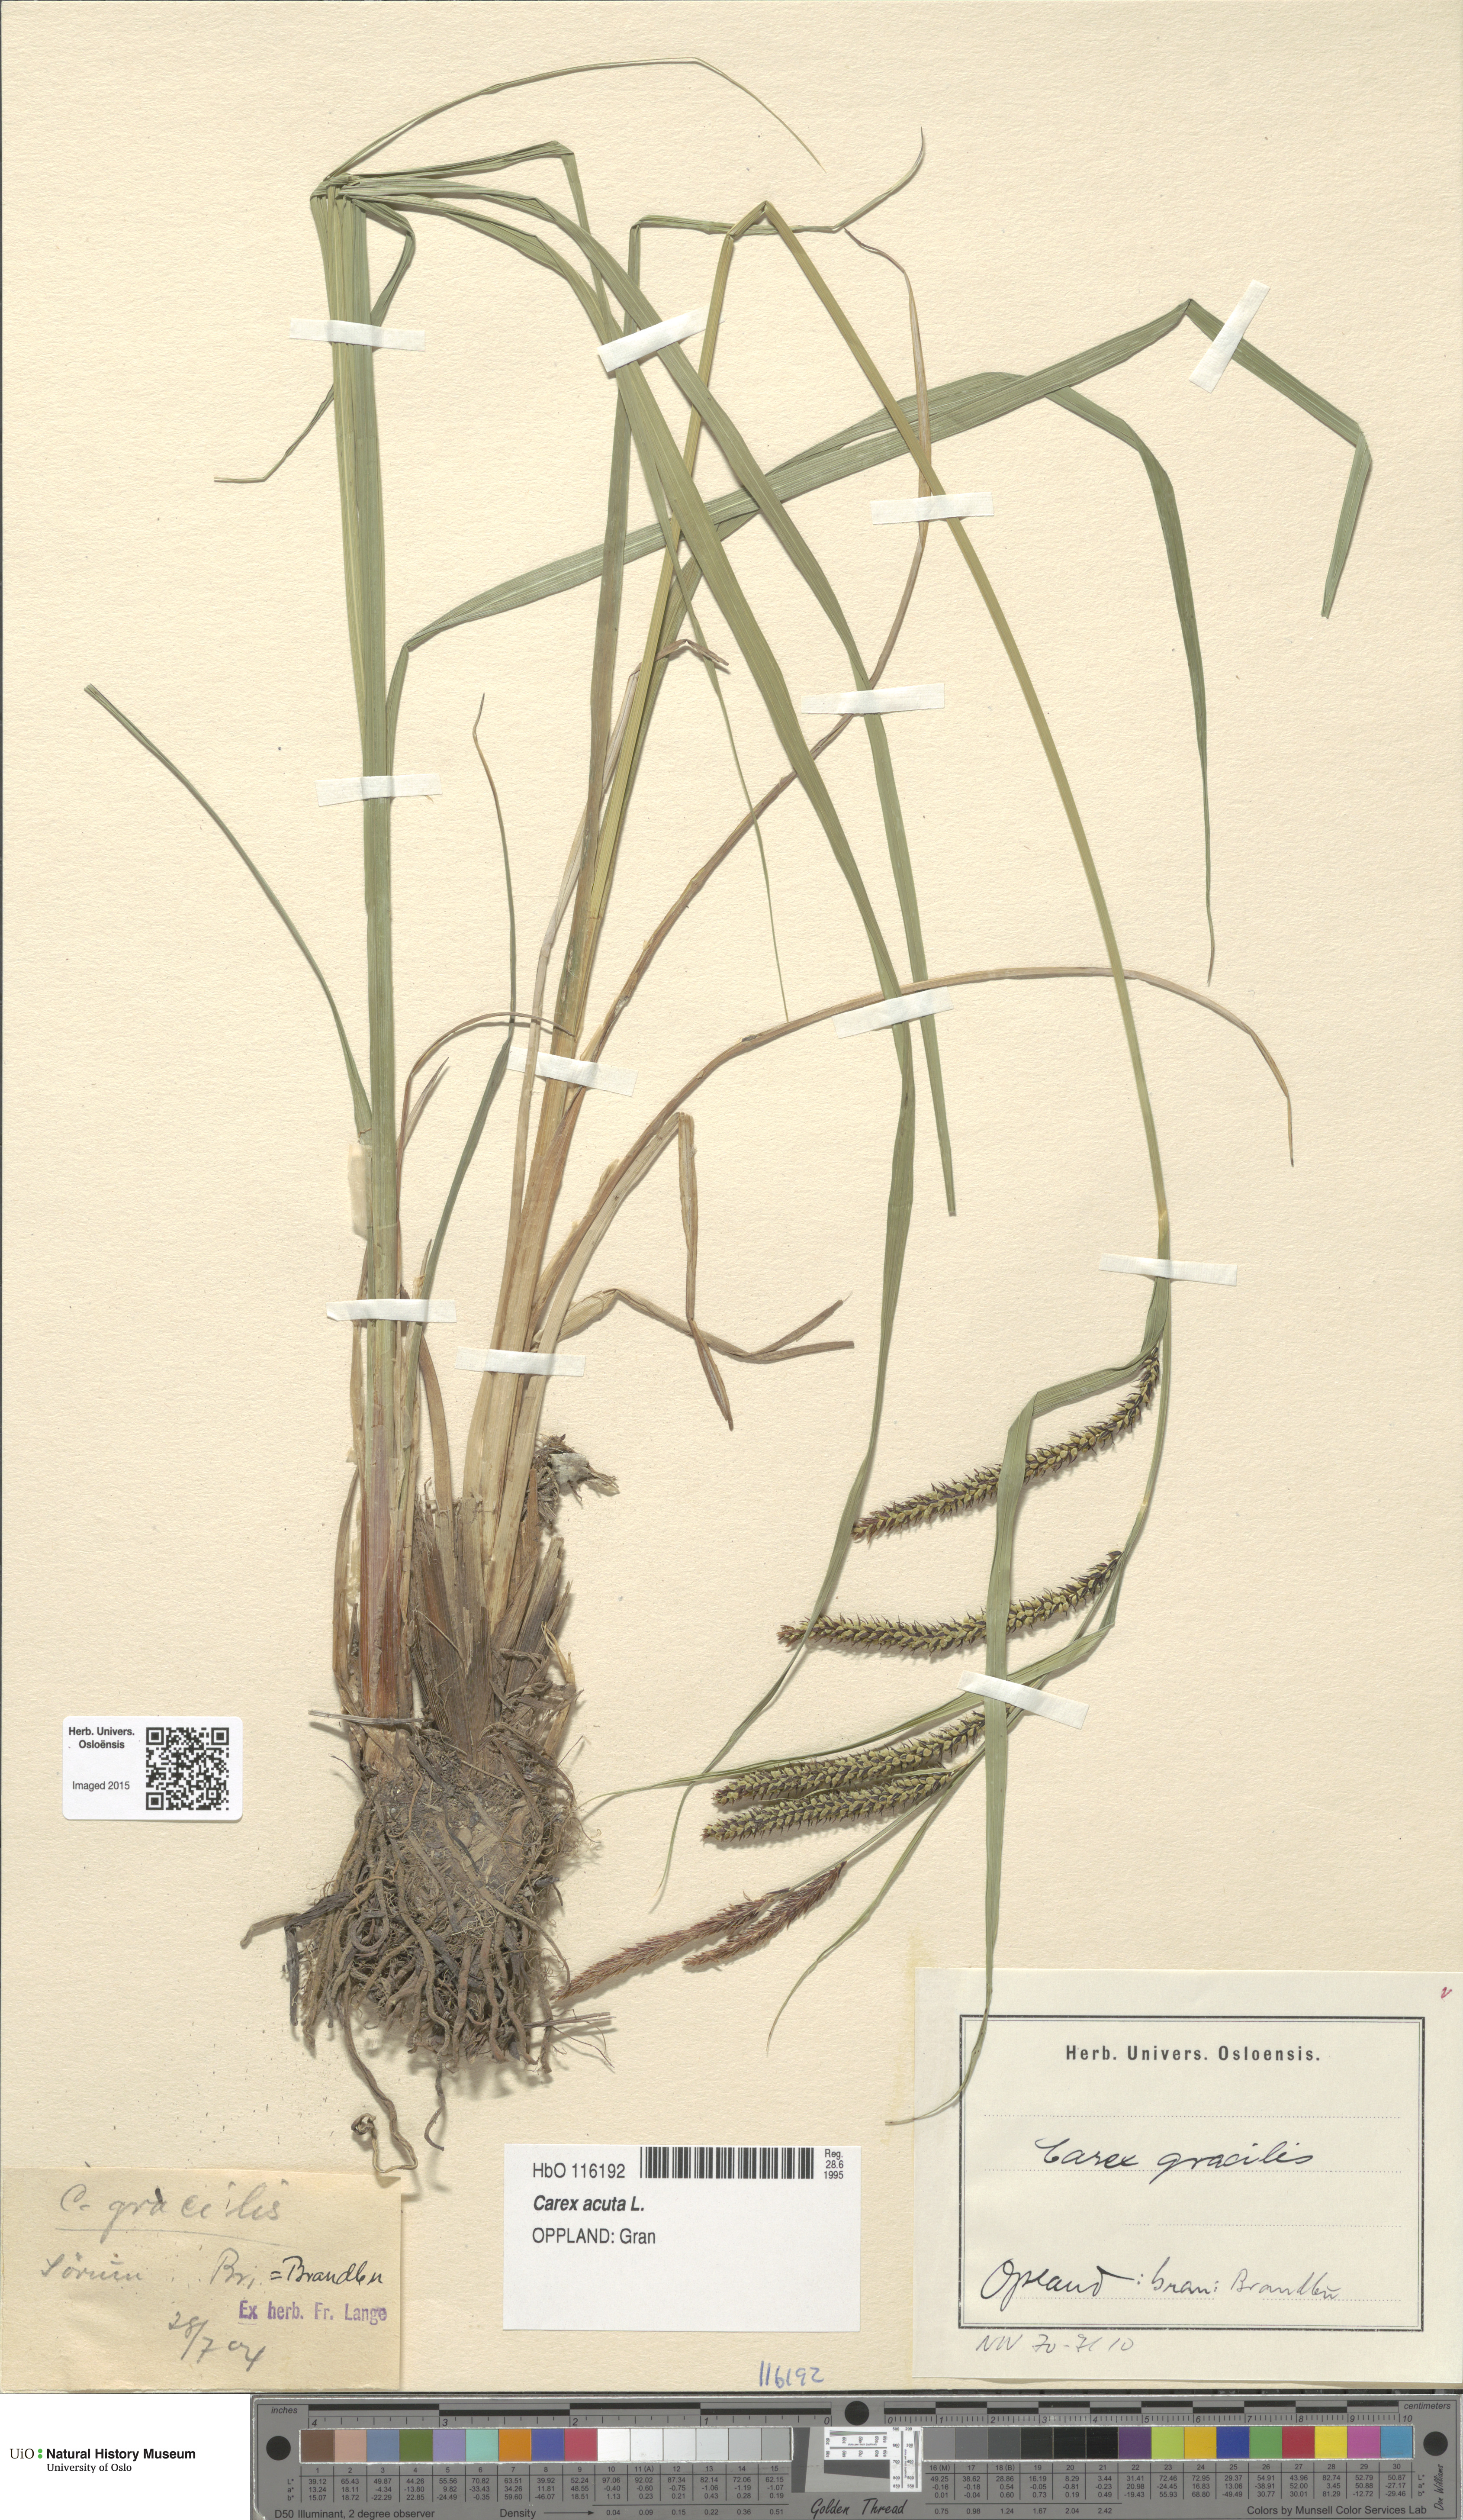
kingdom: Plantae
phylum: Tracheophyta
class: Liliopsida
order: Poales
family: Cyperaceae
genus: Carex
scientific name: Carex acuta
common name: Slender tufted-sedge
